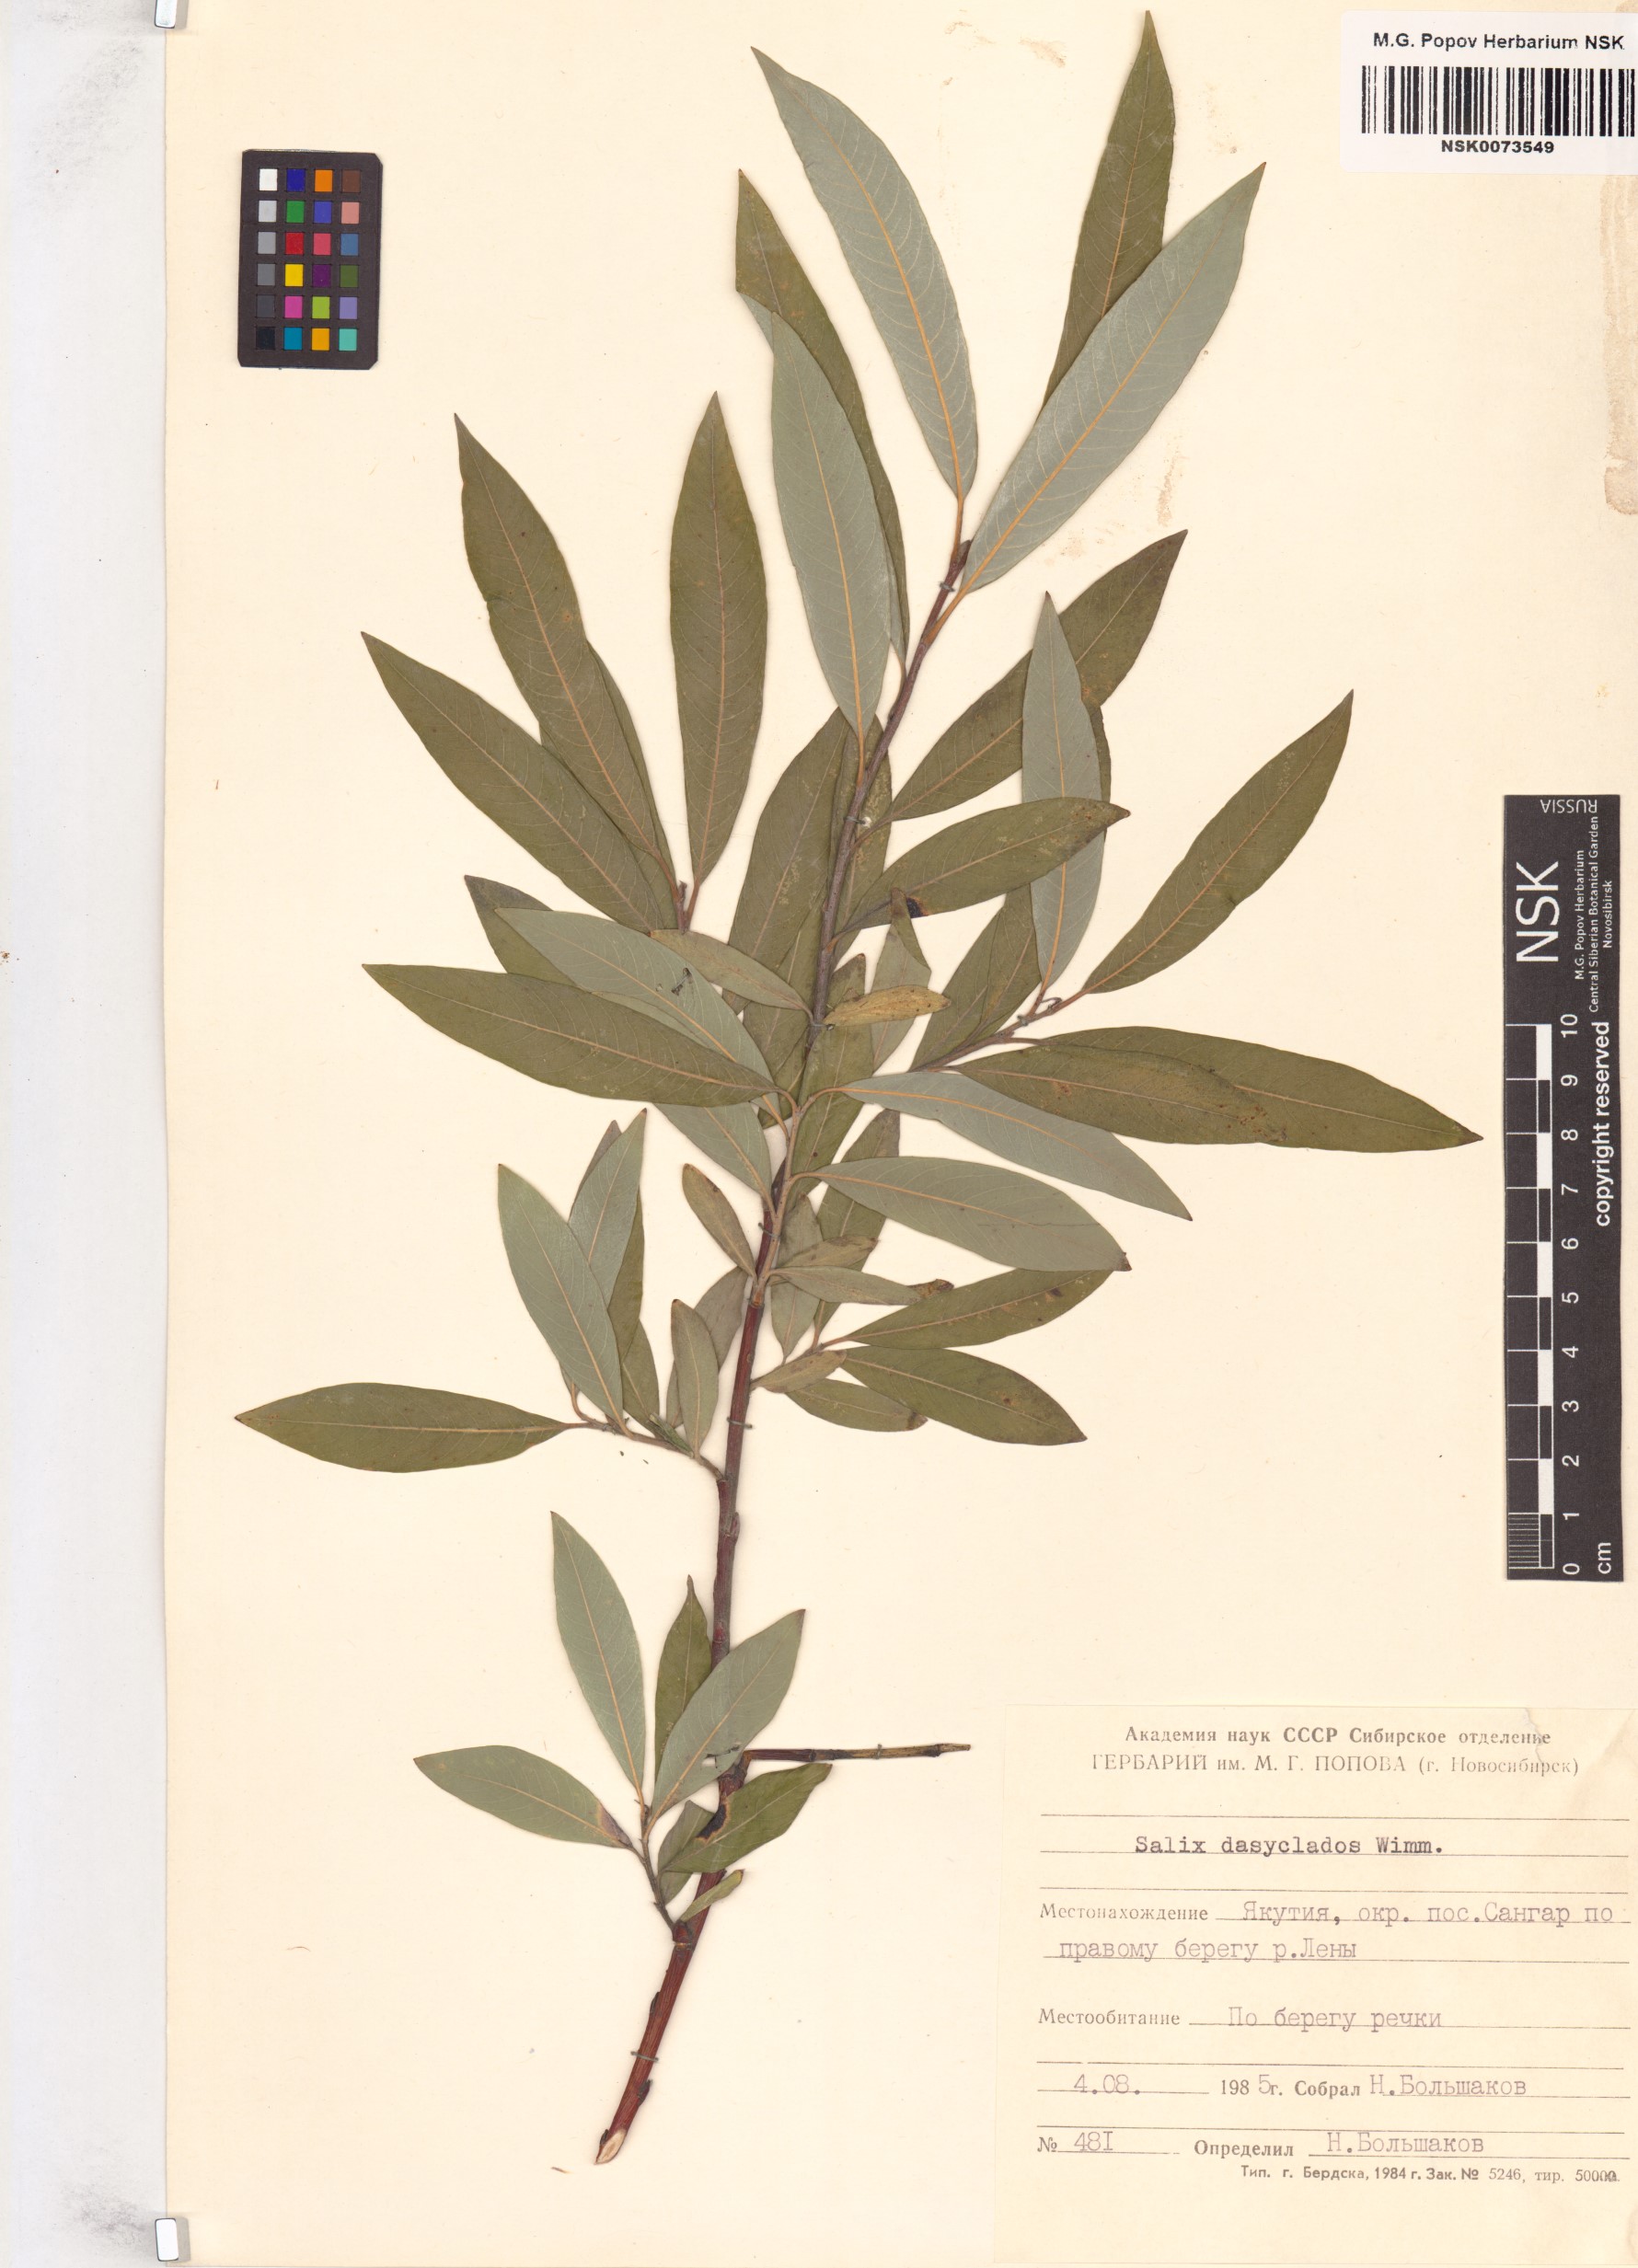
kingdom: Plantae
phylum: Tracheophyta
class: Magnoliopsida
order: Malpighiales
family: Salicaceae
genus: Salix
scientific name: Salix gmelinii
